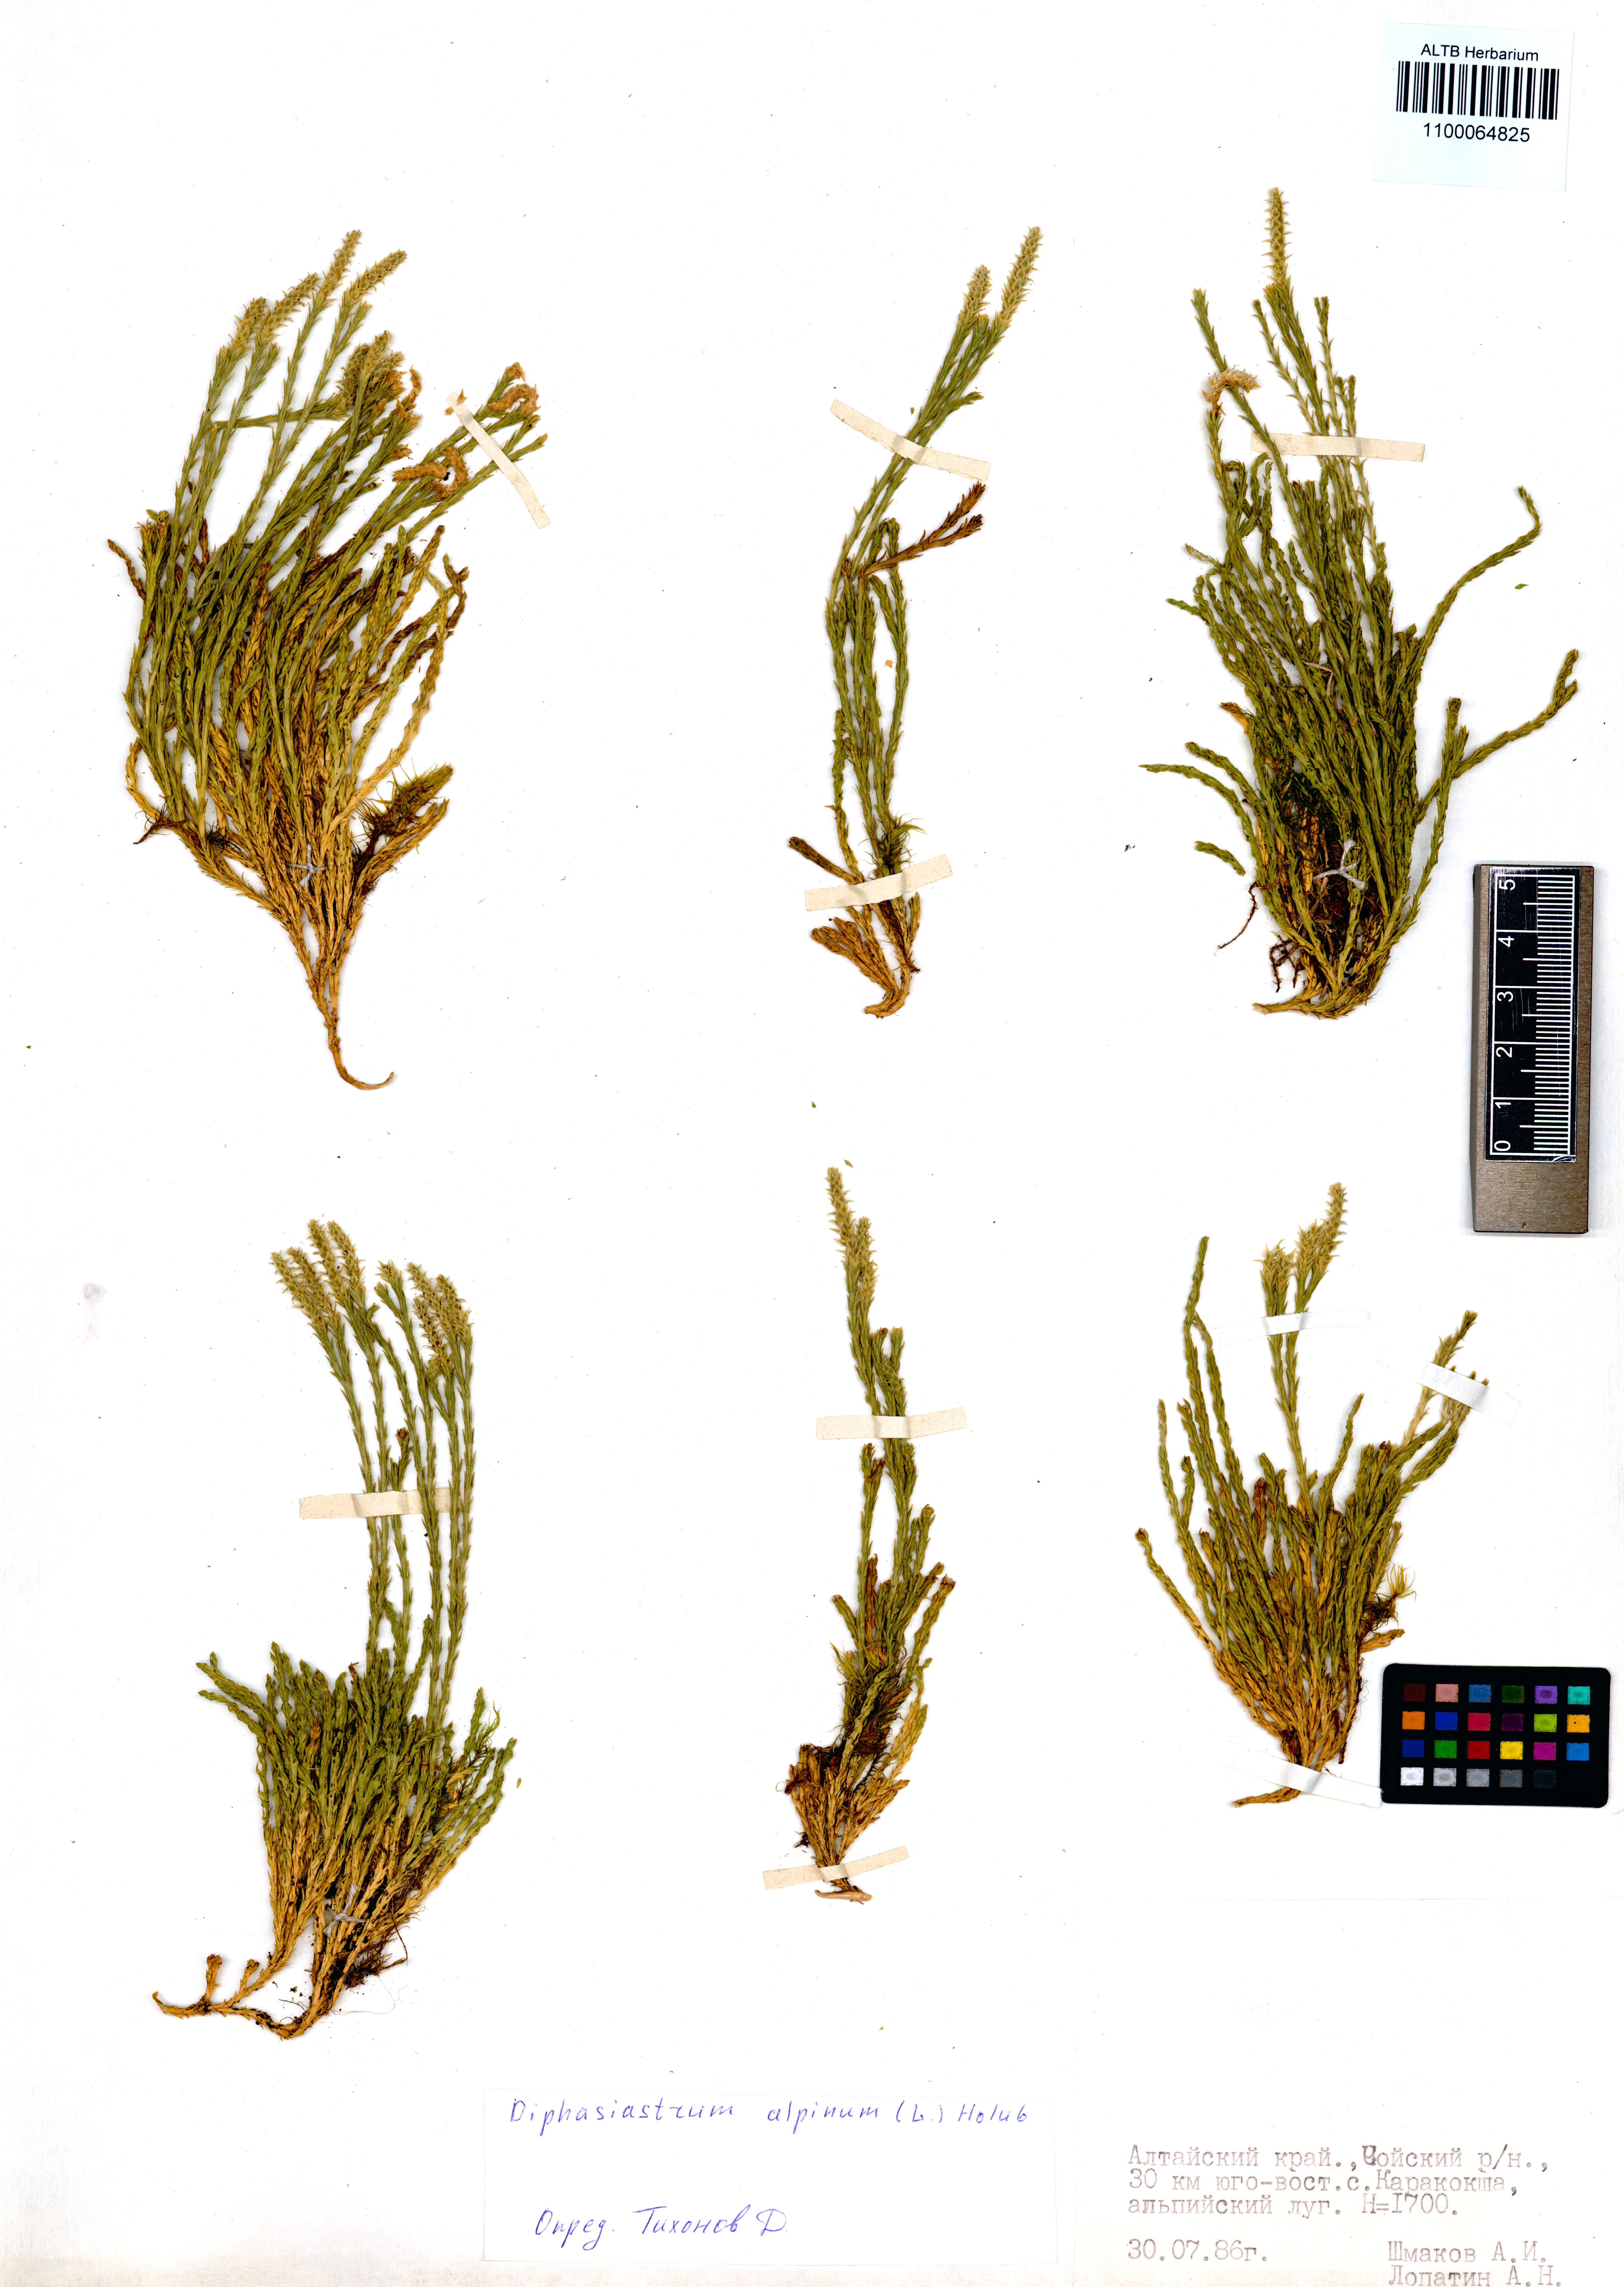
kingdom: Plantae
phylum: Tracheophyta
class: Lycopodiopsida
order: Lycopodiales
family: Lycopodiaceae
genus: Diphasiastrum
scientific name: Diphasiastrum alpinum
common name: Alpine clubmoss
